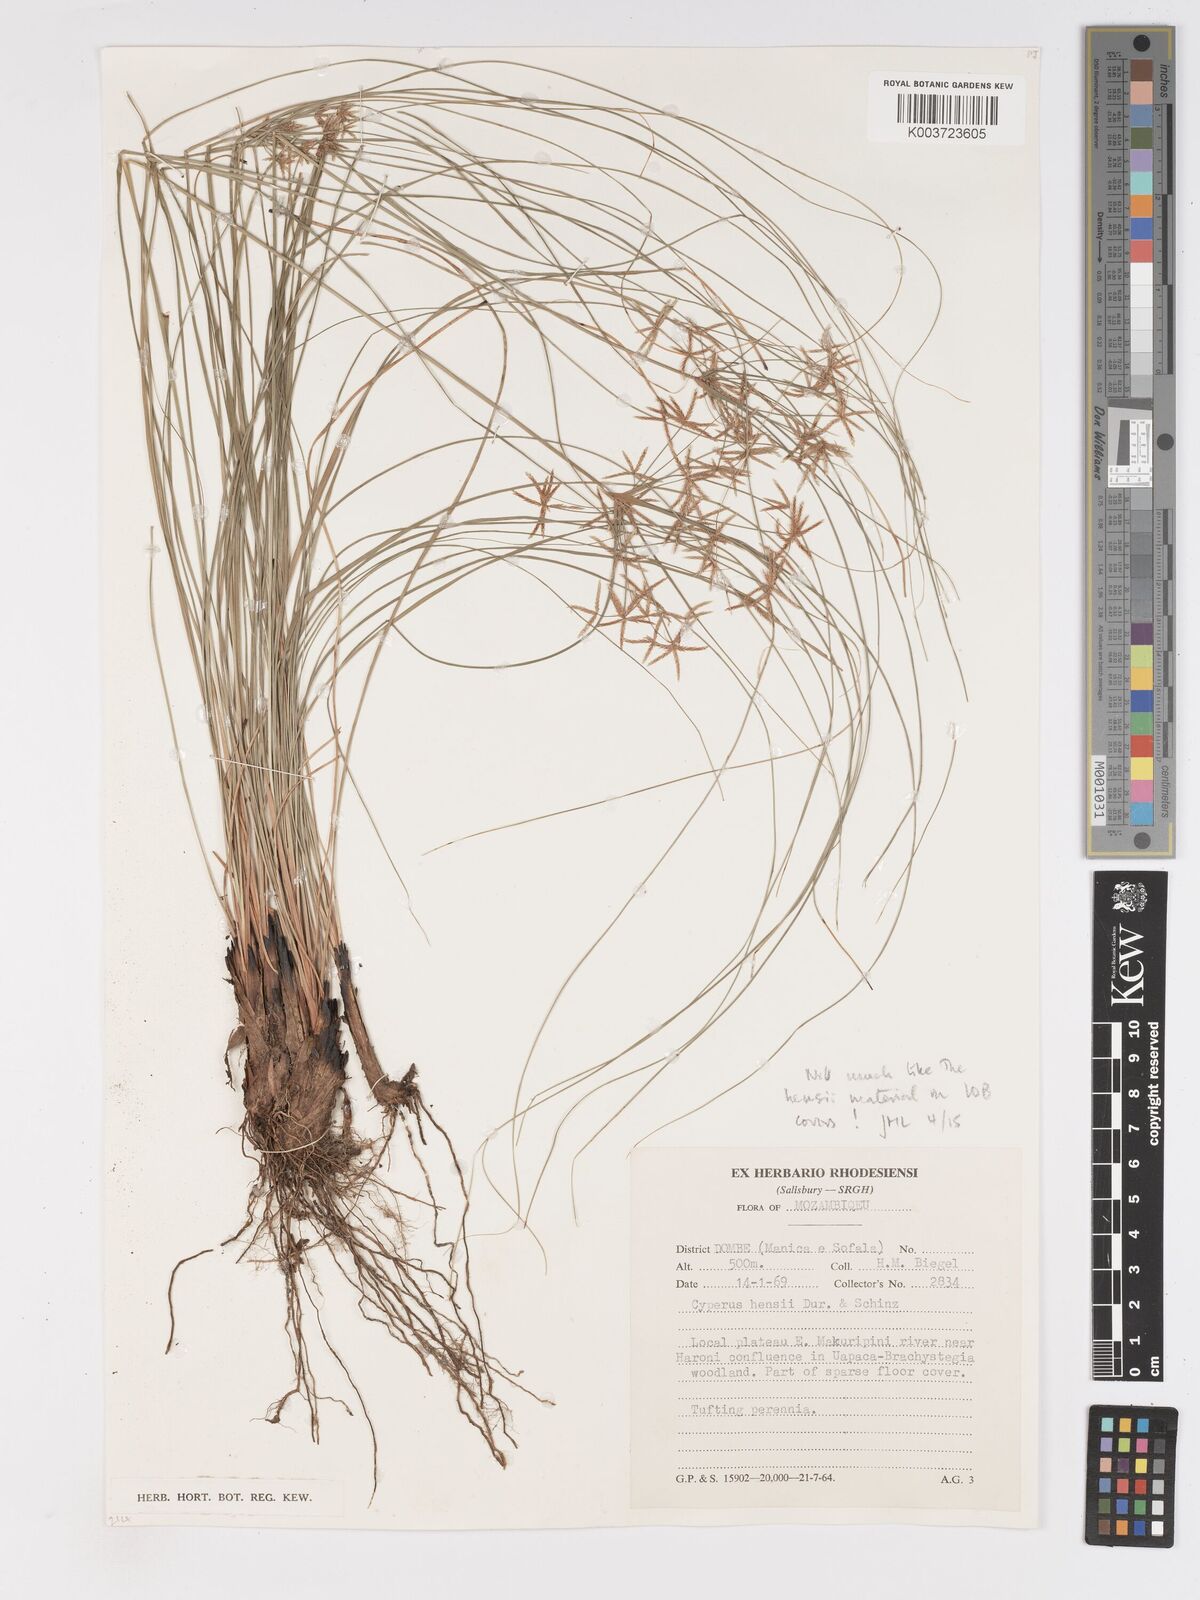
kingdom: Plantae
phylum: Tracheophyta
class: Liliopsida
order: Poales
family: Cyperaceae
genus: Cyperus
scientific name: Cyperus
